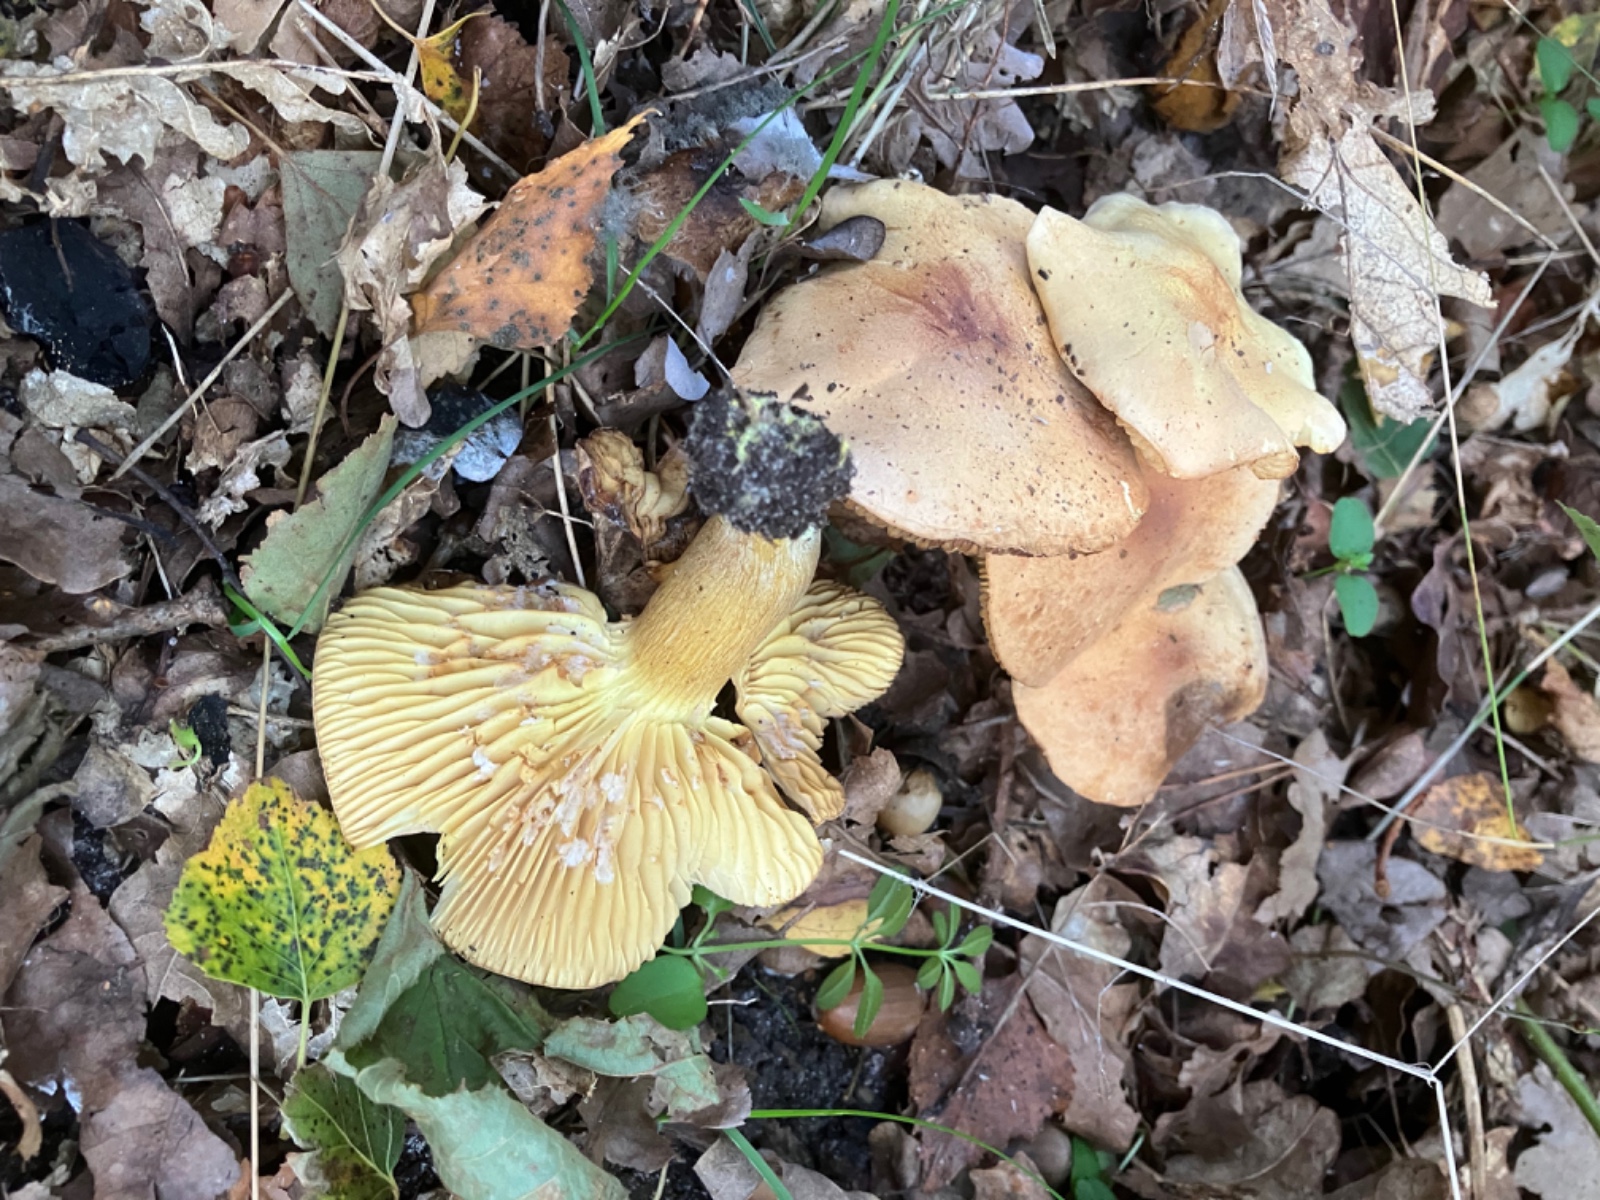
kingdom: Fungi
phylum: Basidiomycota
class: Agaricomycetes
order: Agaricales
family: Tricholomataceae
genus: Tricholoma
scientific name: Tricholoma sulphureum
